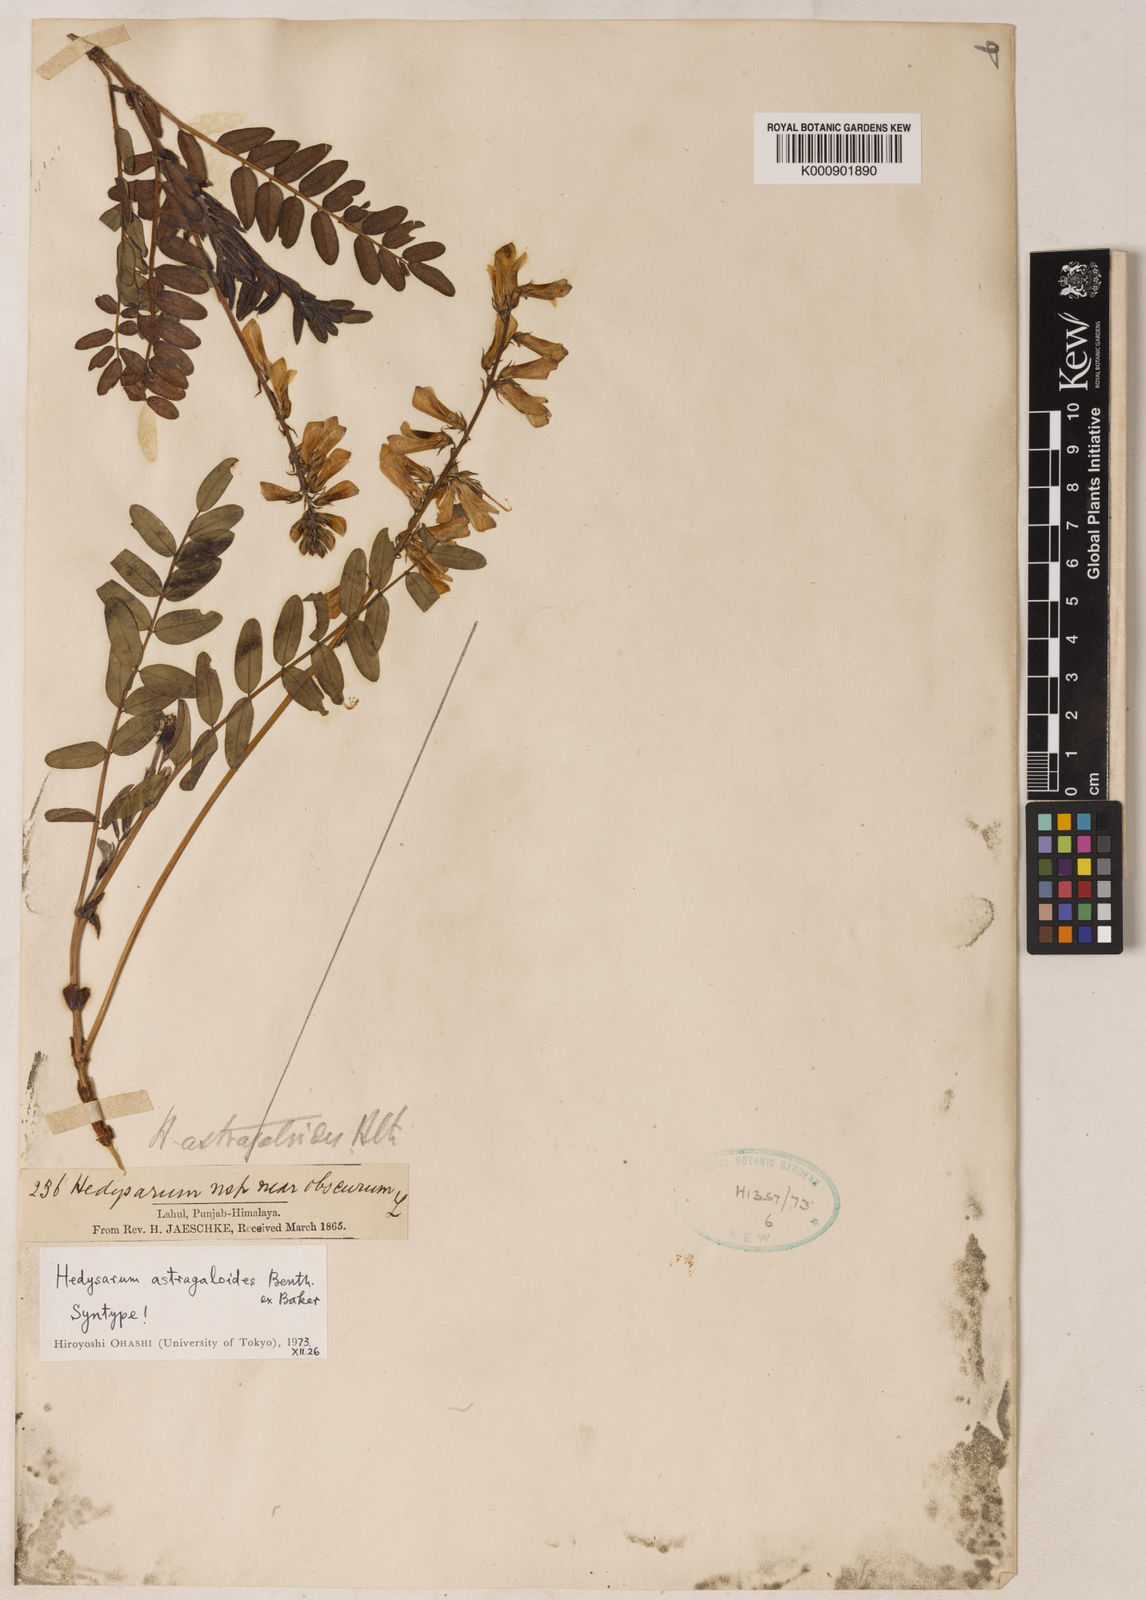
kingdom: Plantae
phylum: Tracheophyta
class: Magnoliopsida
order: Fabales
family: Fabaceae
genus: Hedysarum
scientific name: Hedysarum astragaloides
